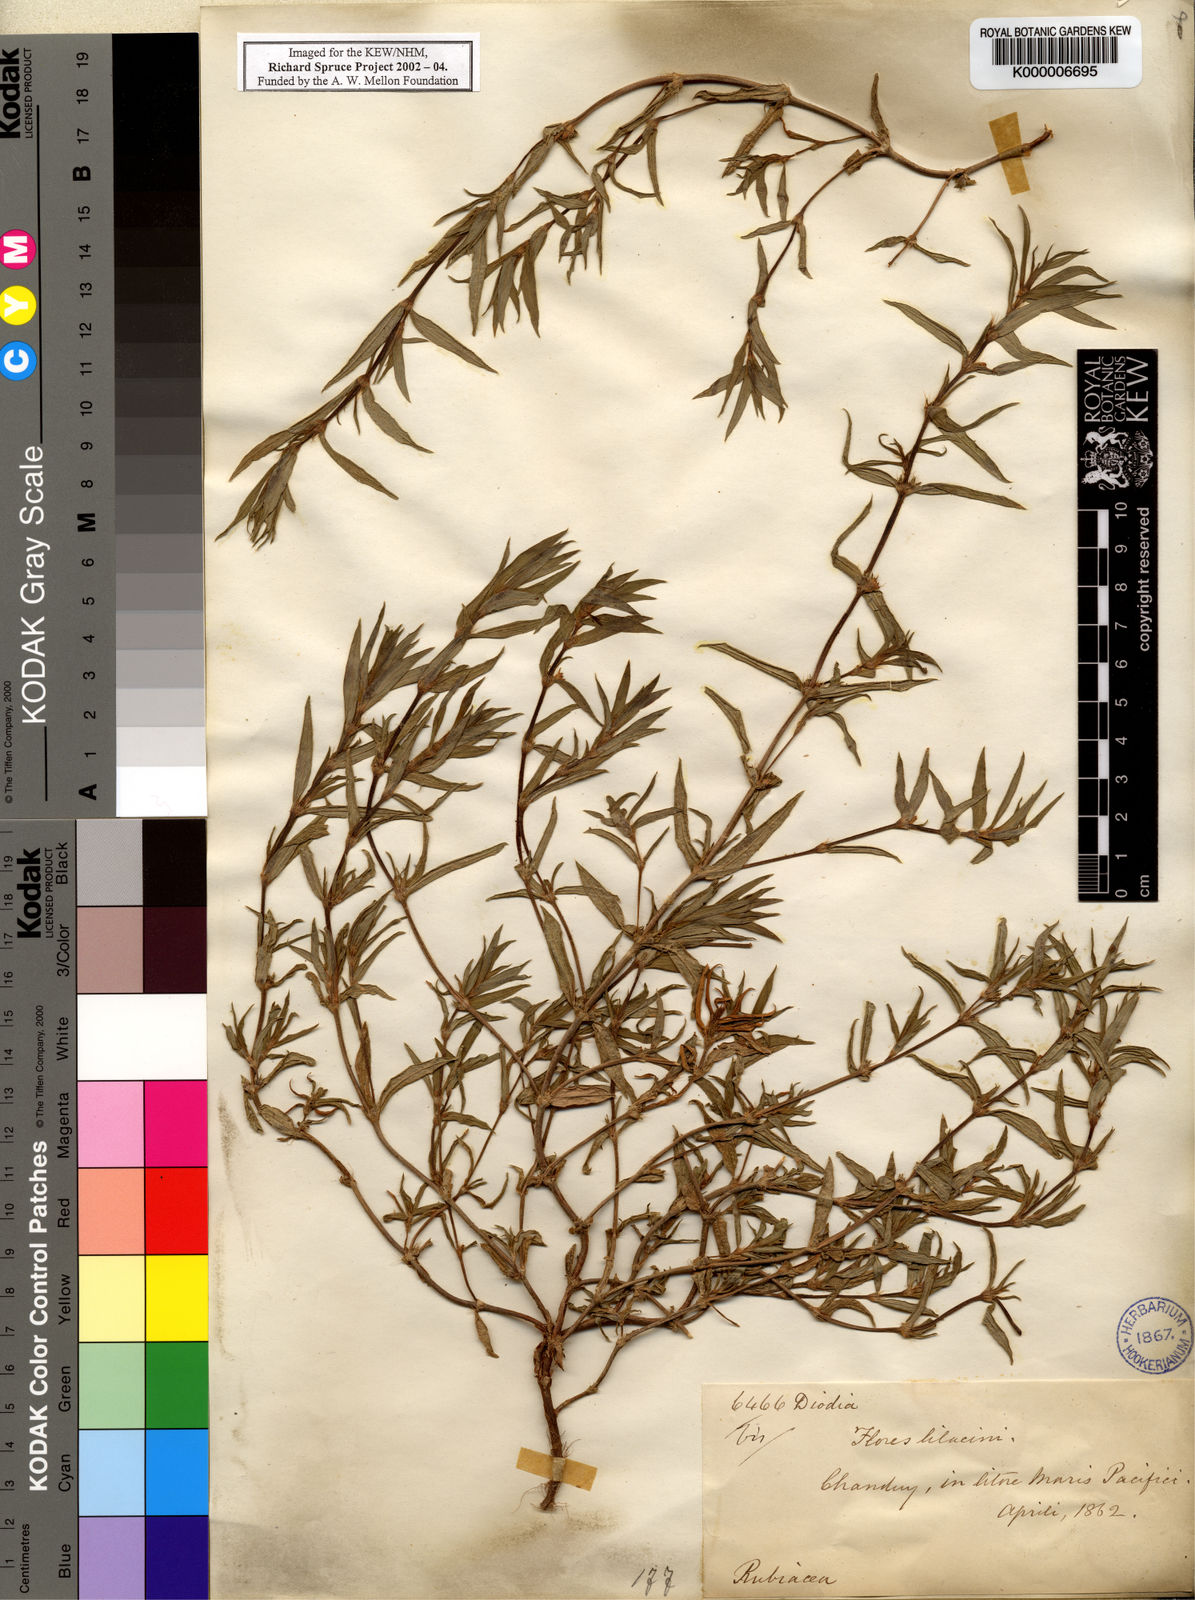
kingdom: Plantae
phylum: Tracheophyta
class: Magnoliopsida
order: Gentianales
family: Rubiaceae
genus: Hexasepalum
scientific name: Hexasepalum apiculatum
